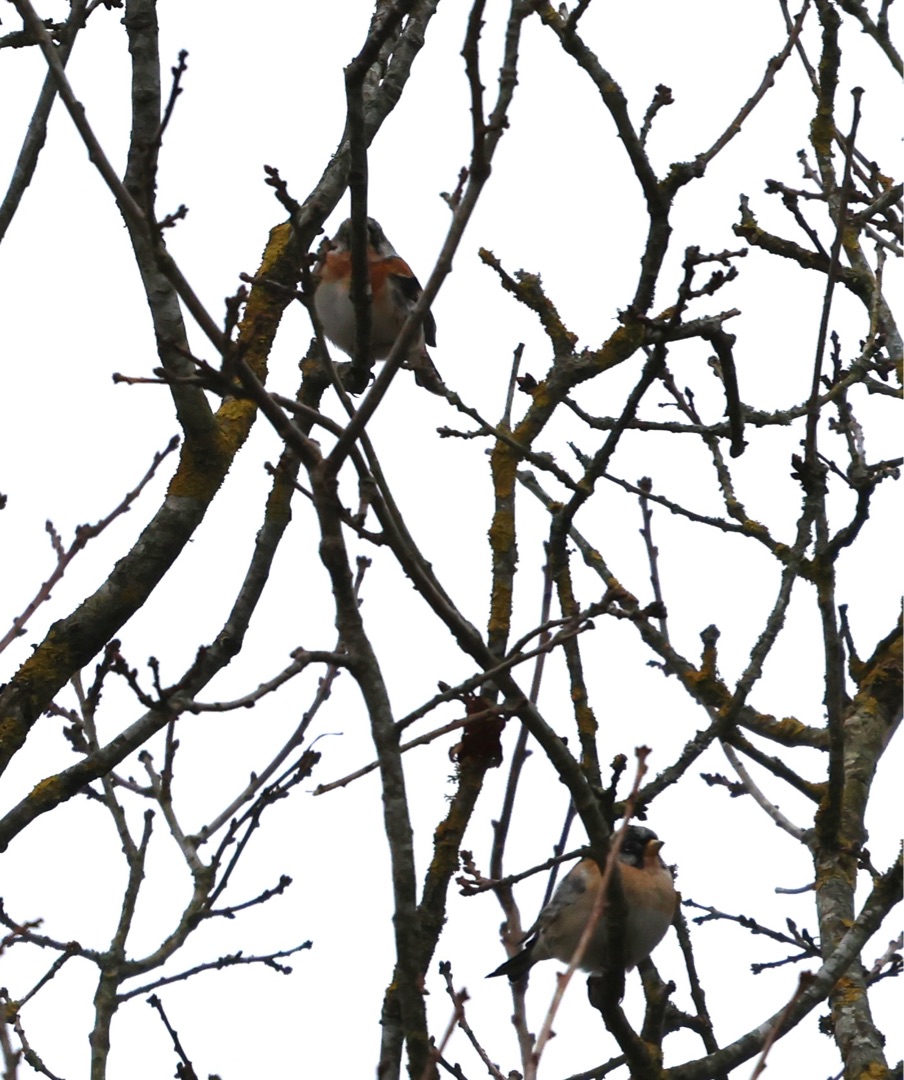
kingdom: Animalia
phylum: Chordata
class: Aves
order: Passeriformes
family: Fringillidae
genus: Fringilla
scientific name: Fringilla montifringilla
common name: Kvækerfinke
